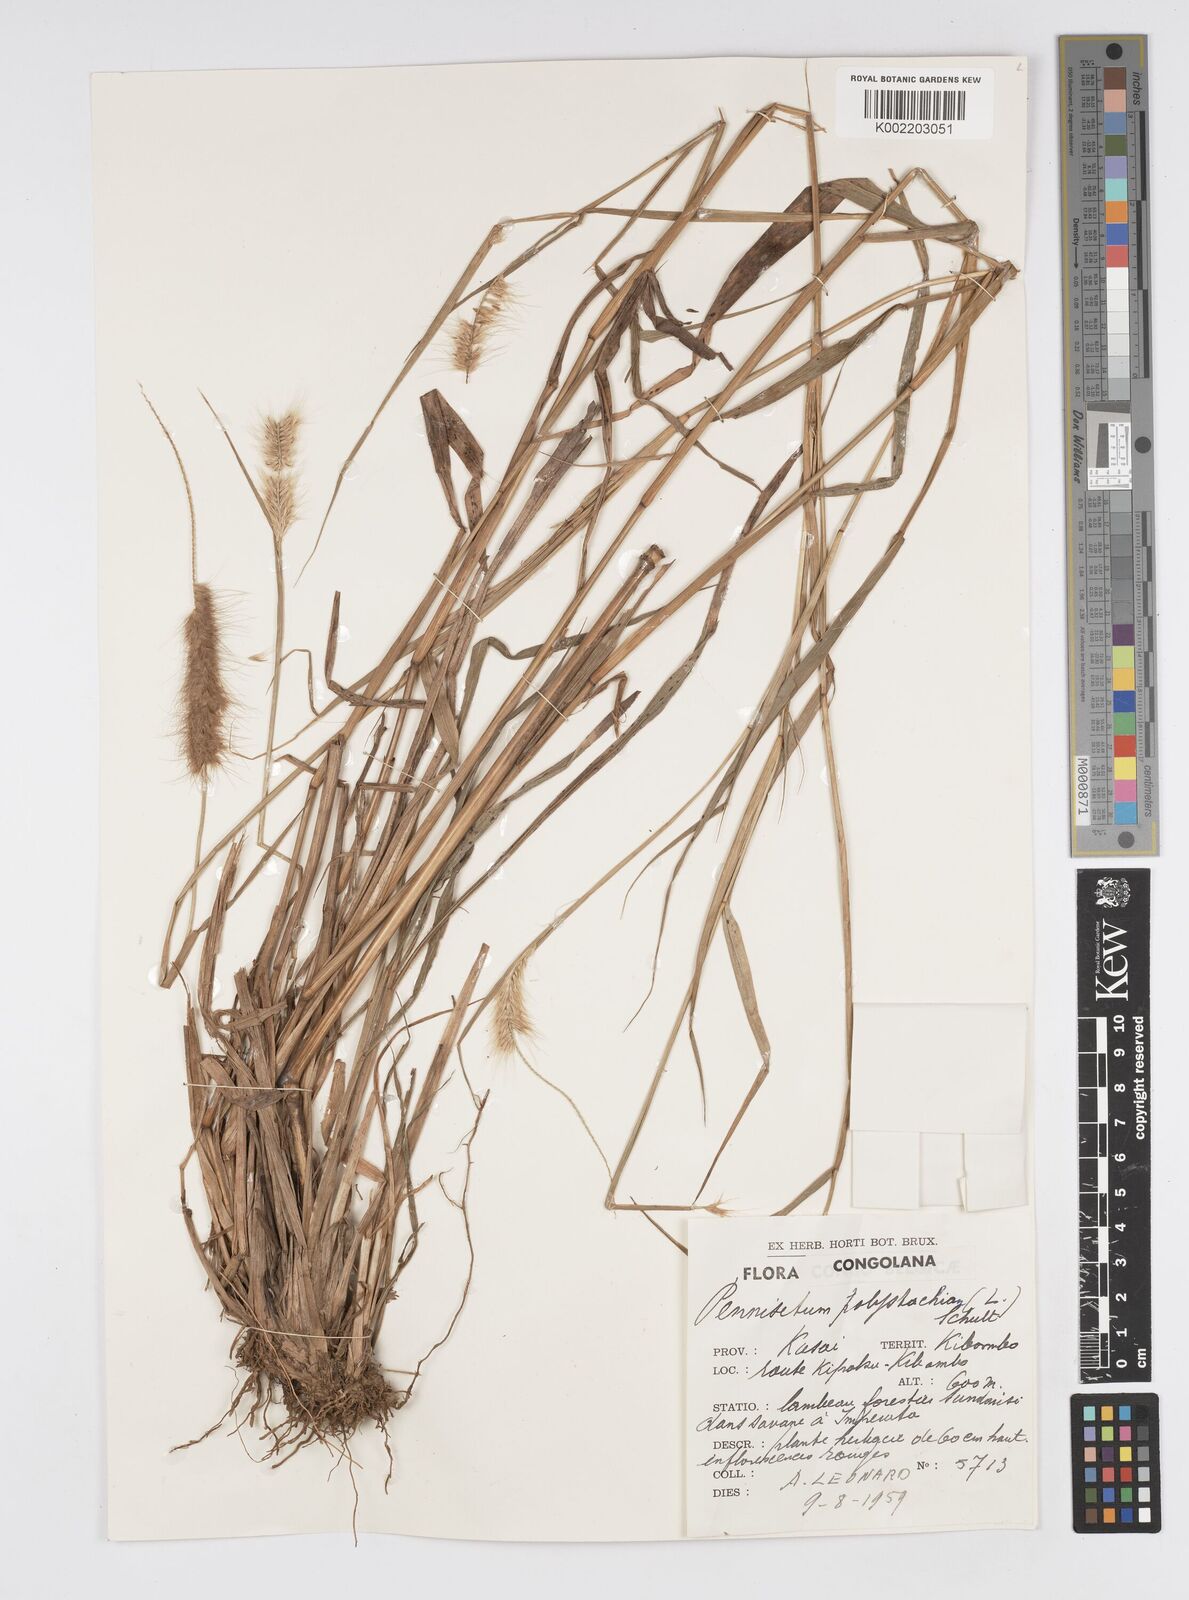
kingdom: Plantae
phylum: Tracheophyta
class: Liliopsida
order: Poales
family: Poaceae
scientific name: Poaceae
